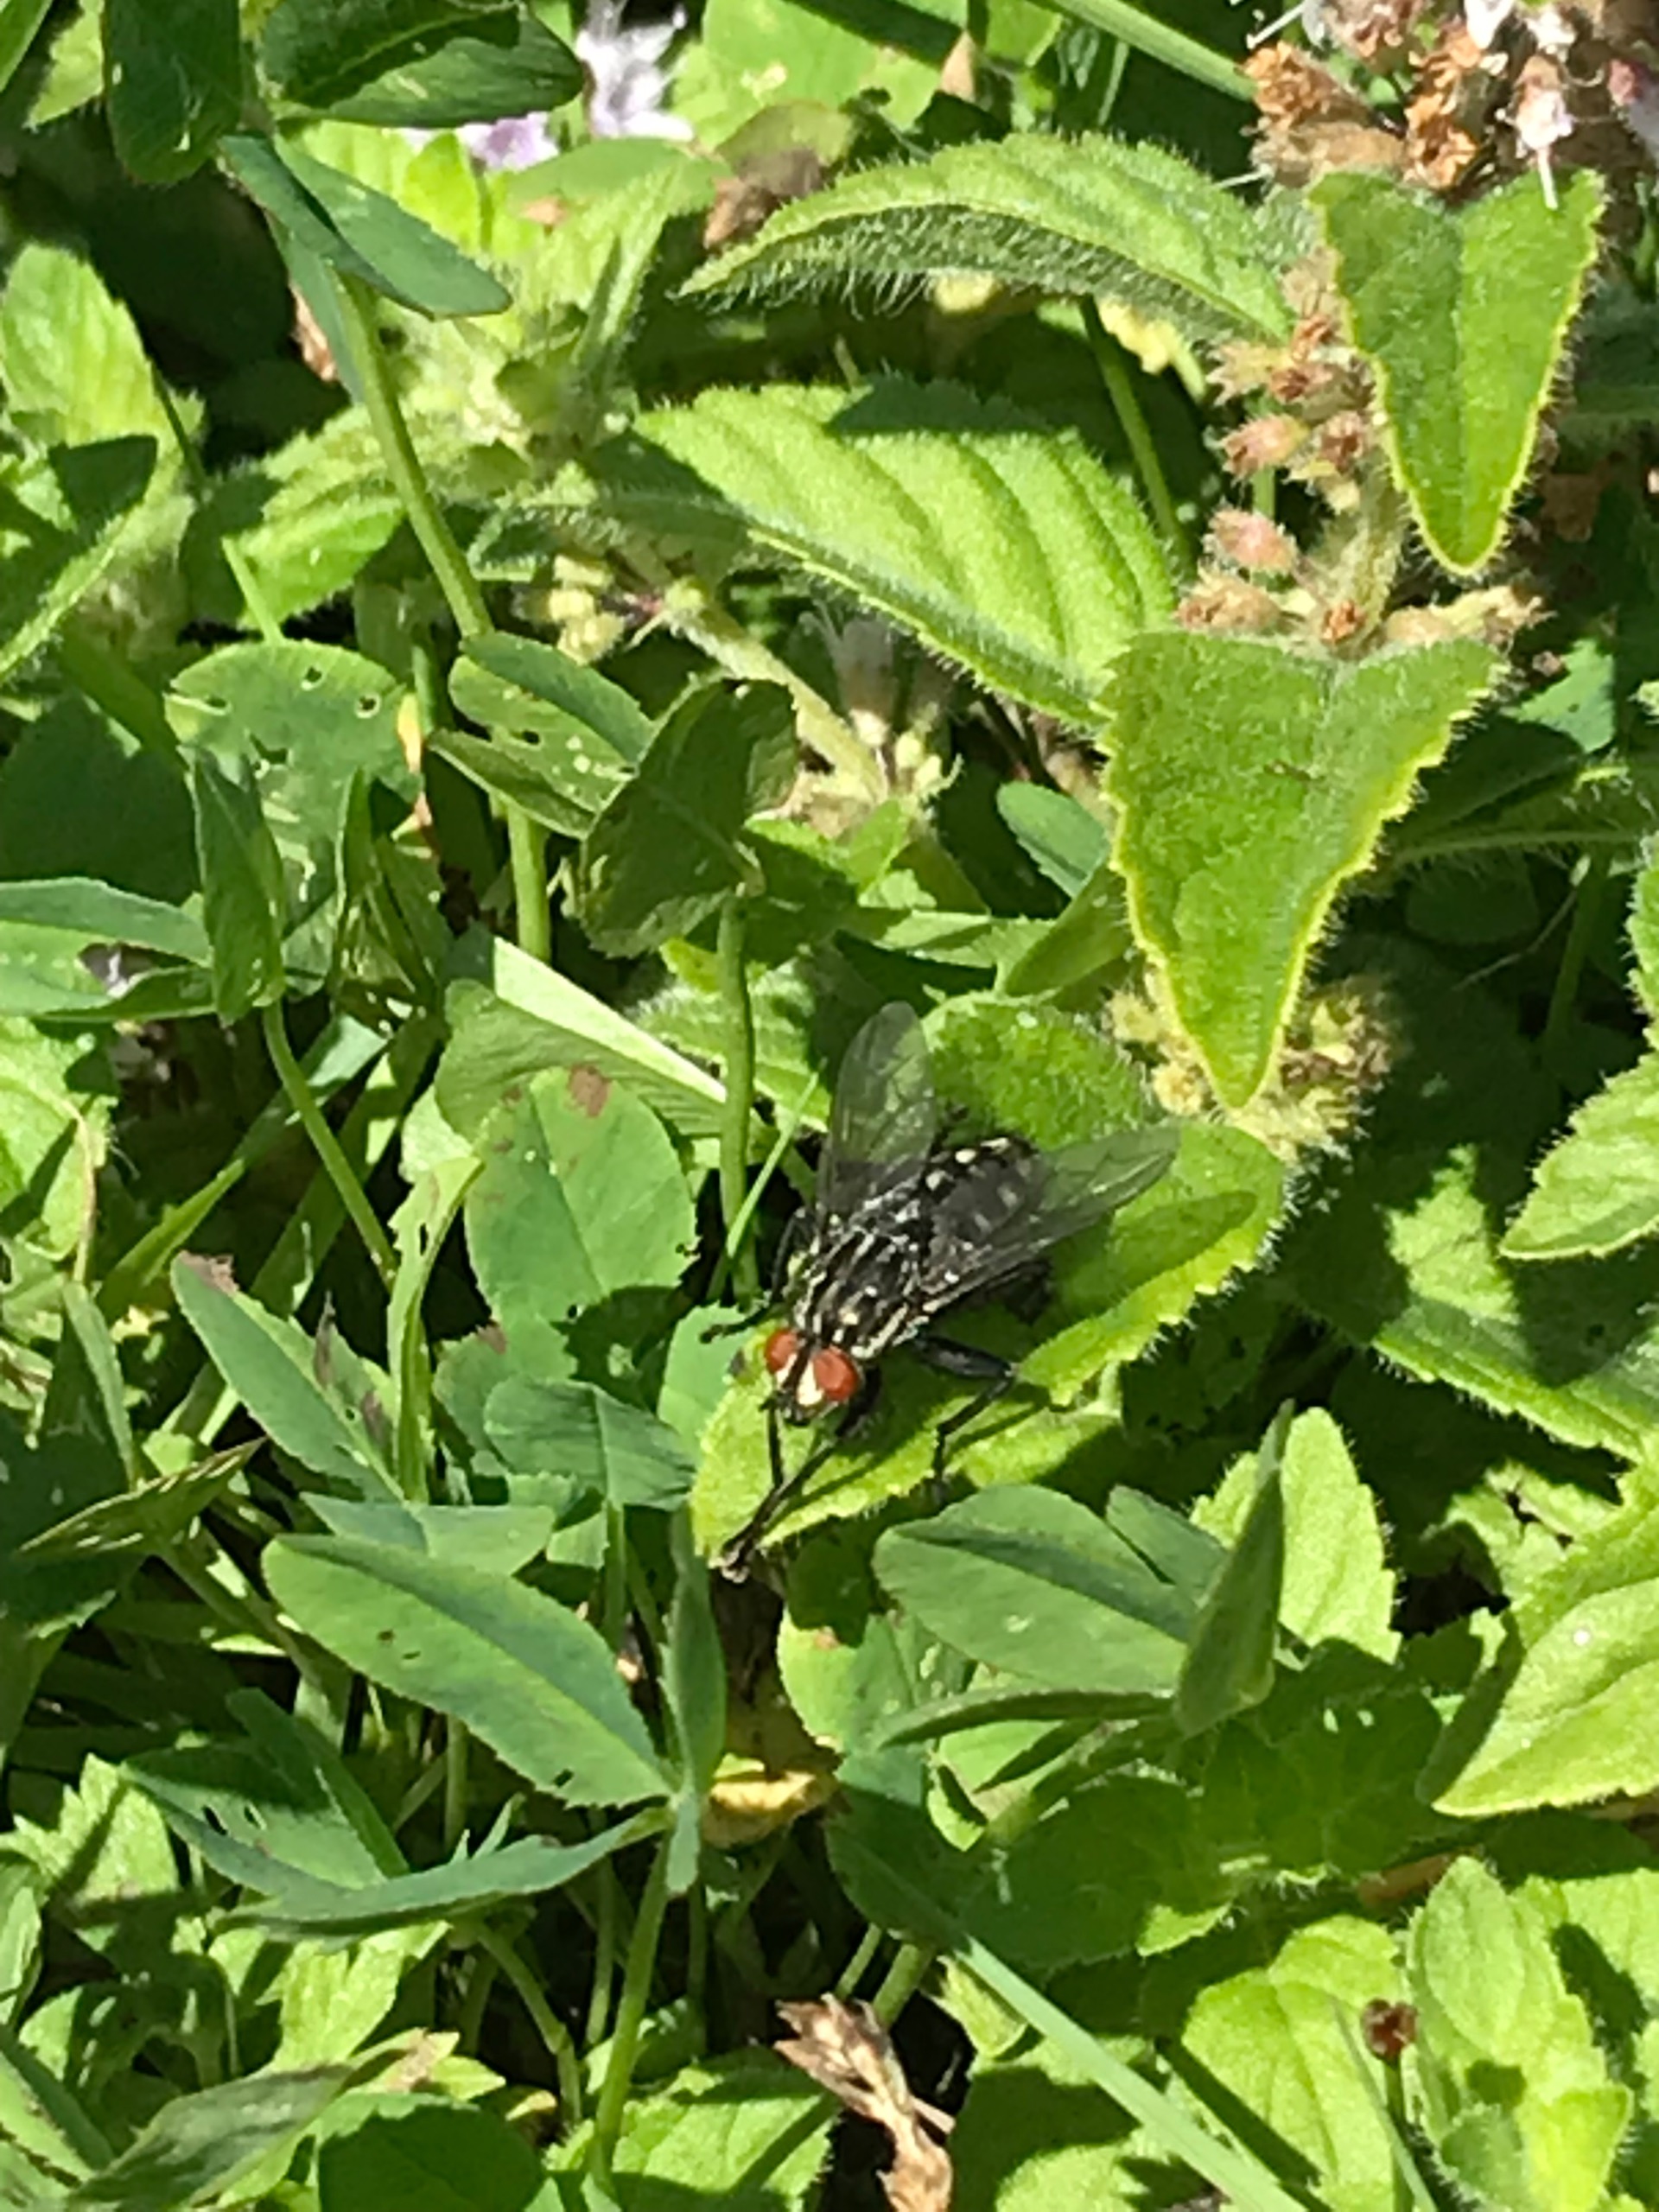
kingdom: Animalia
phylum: Arthropoda
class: Insecta
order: Diptera
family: Sarcophagidae
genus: Sarcophaga
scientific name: Sarcophaga
